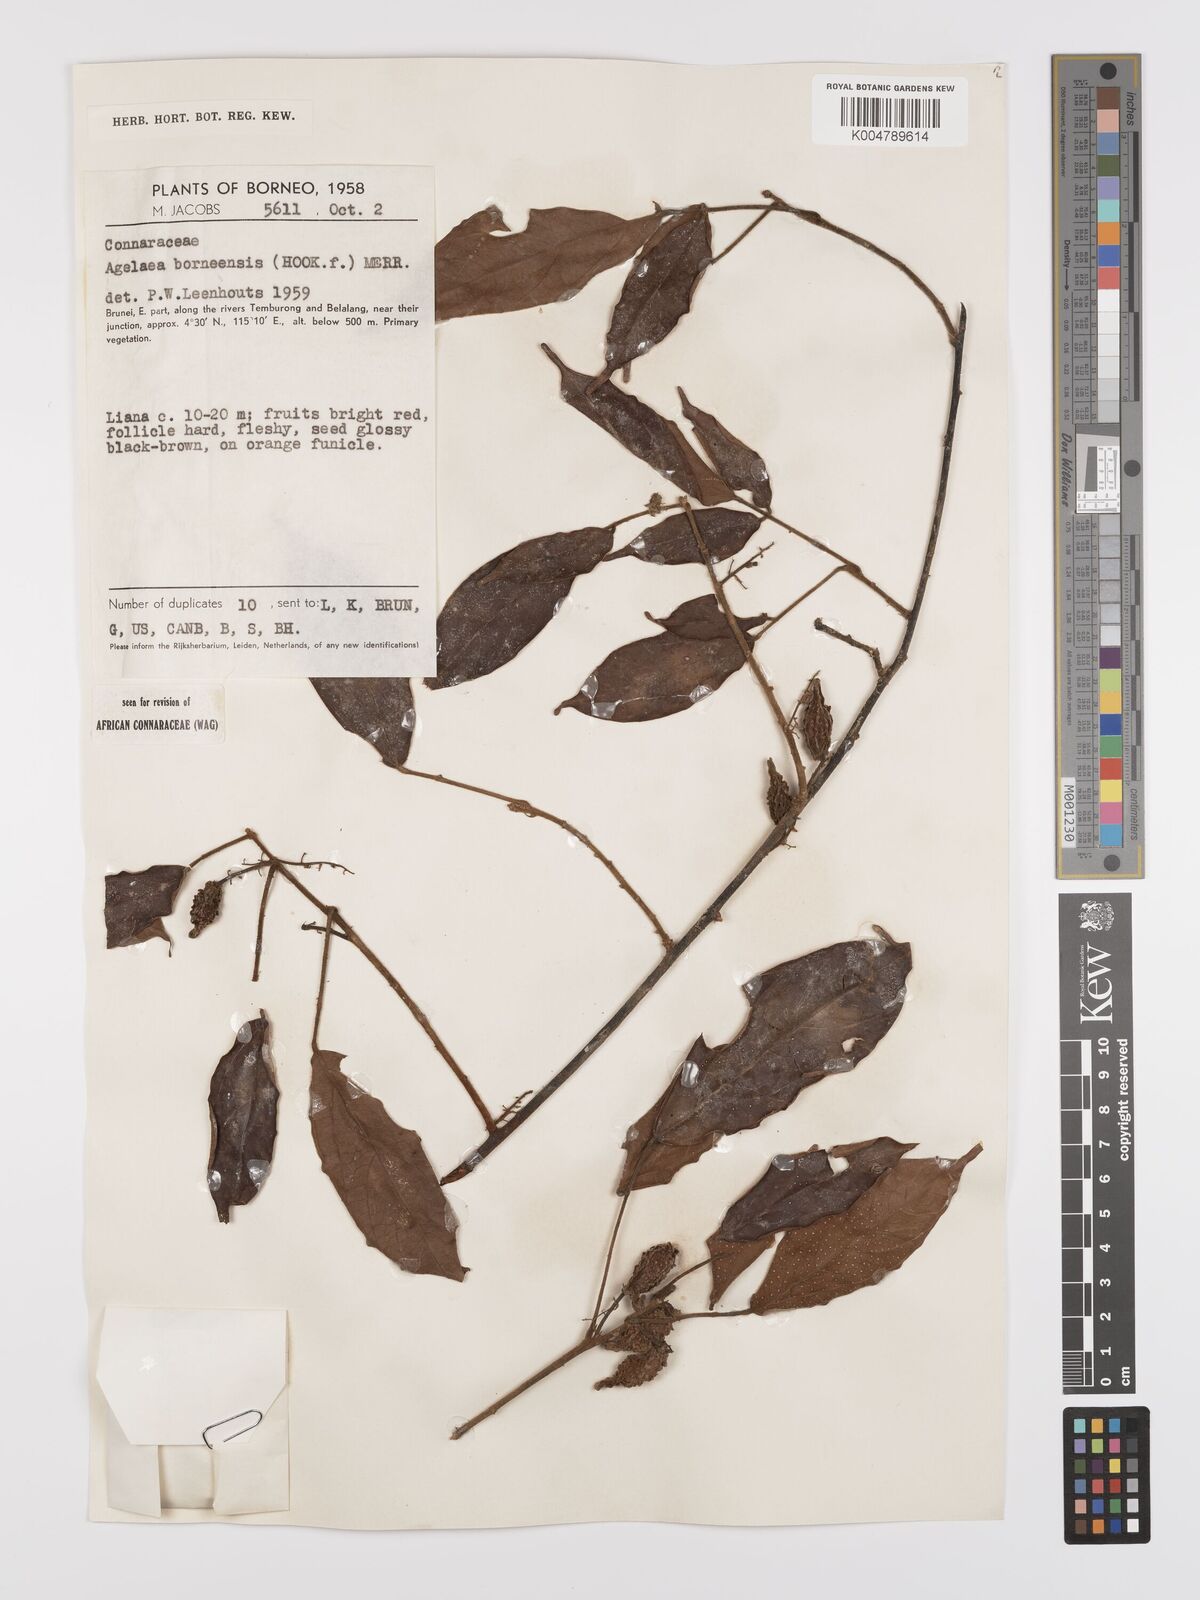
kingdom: Plantae
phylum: Tracheophyta
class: Magnoliopsida
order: Oxalidales
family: Connaraceae
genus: Agelaea
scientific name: Agelaea borneensis
